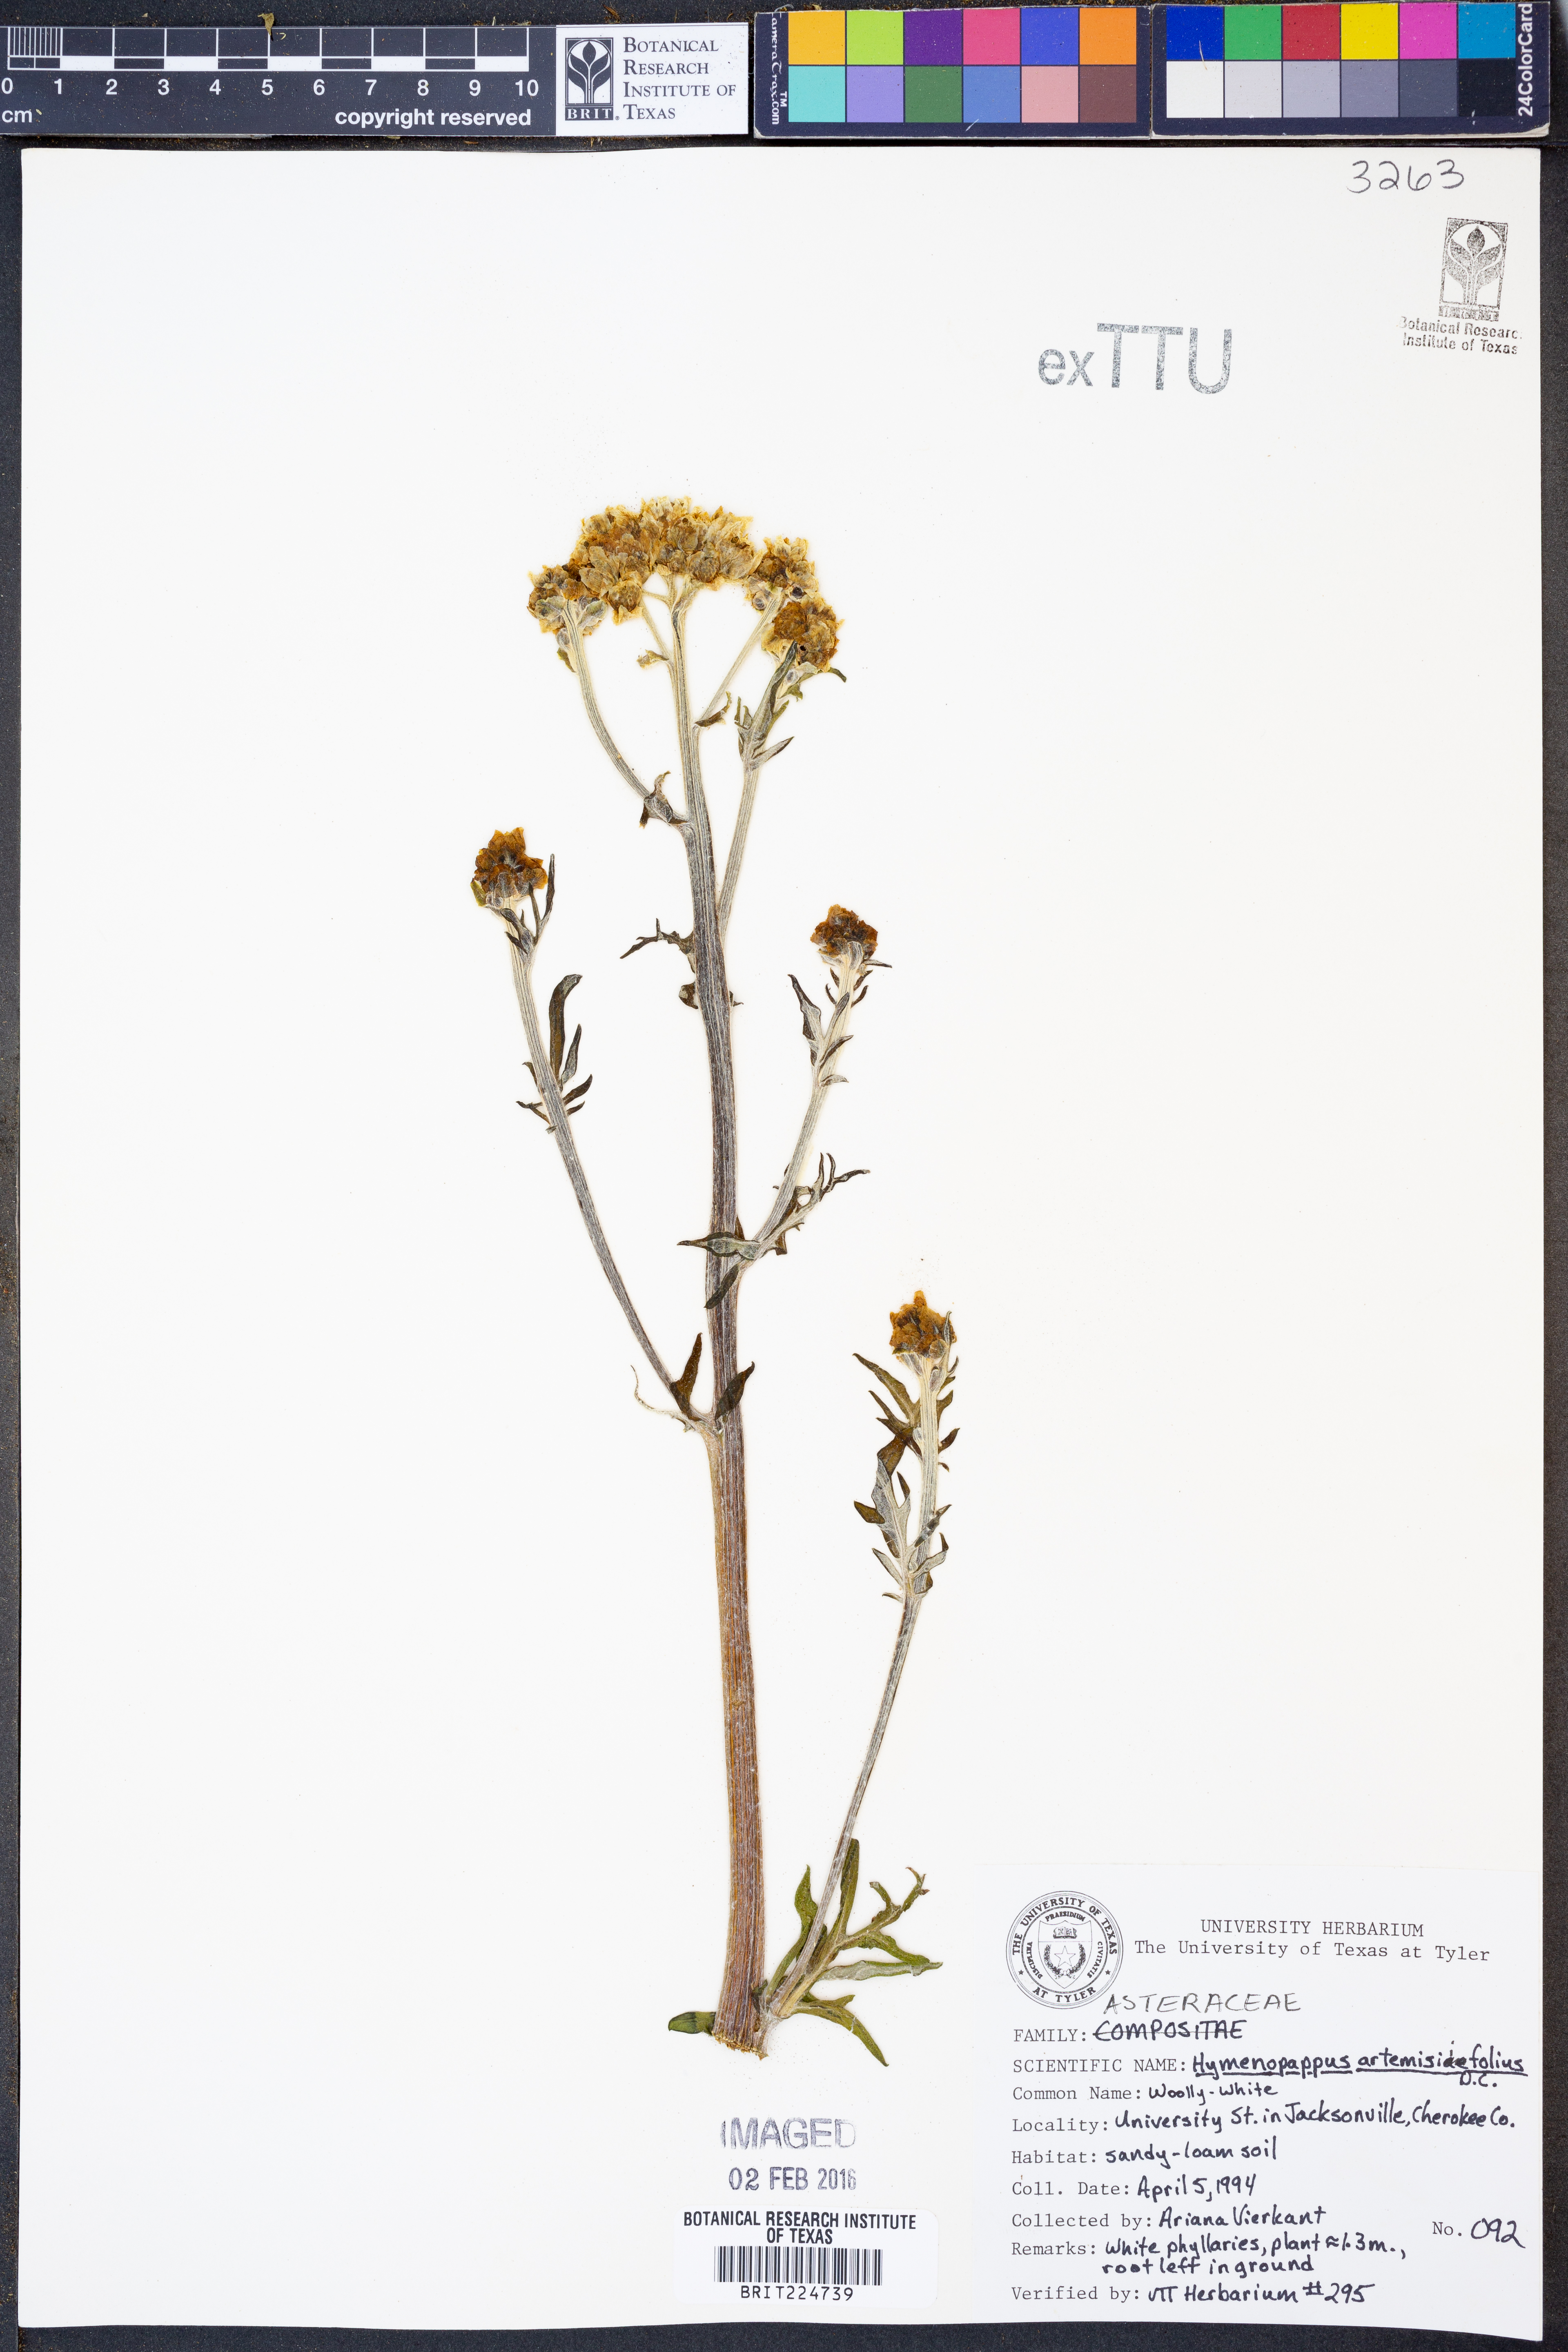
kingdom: Plantae
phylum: Tracheophyta
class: Magnoliopsida
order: Asterales
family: Asteraceae
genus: Hymenopappus
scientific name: Hymenopappus artemisiifolius
